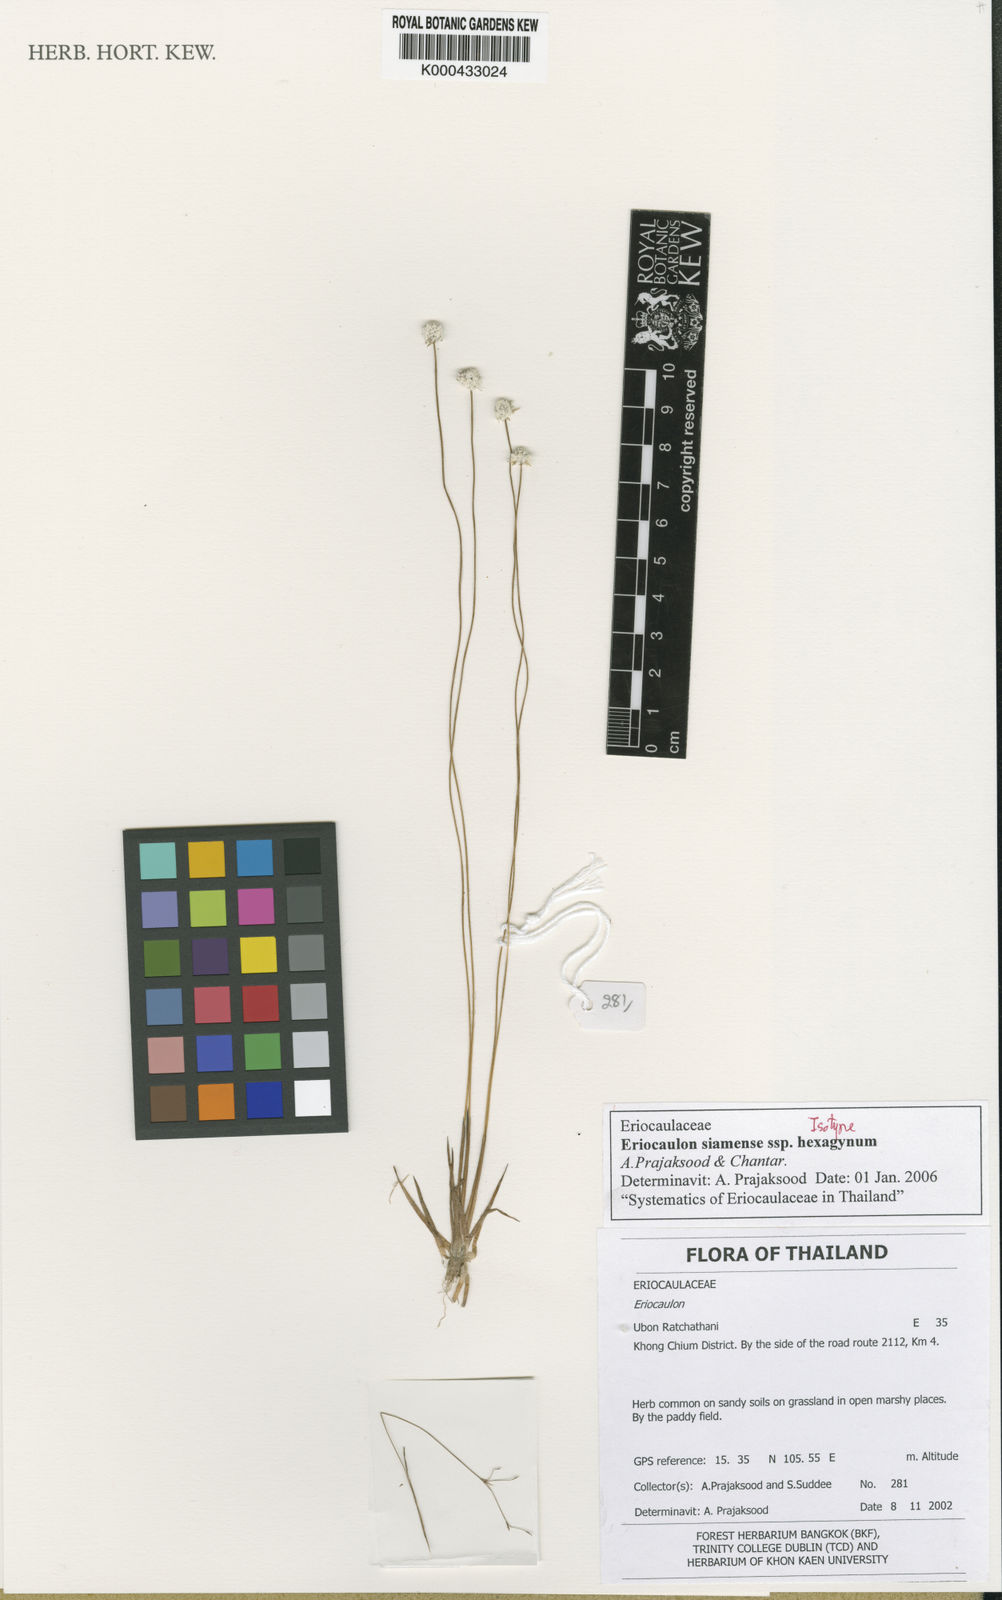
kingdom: Plantae
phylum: Tracheophyta
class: Liliopsida
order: Poales
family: Eriocaulaceae
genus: Eriocaulon
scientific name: Eriocaulon siamense
